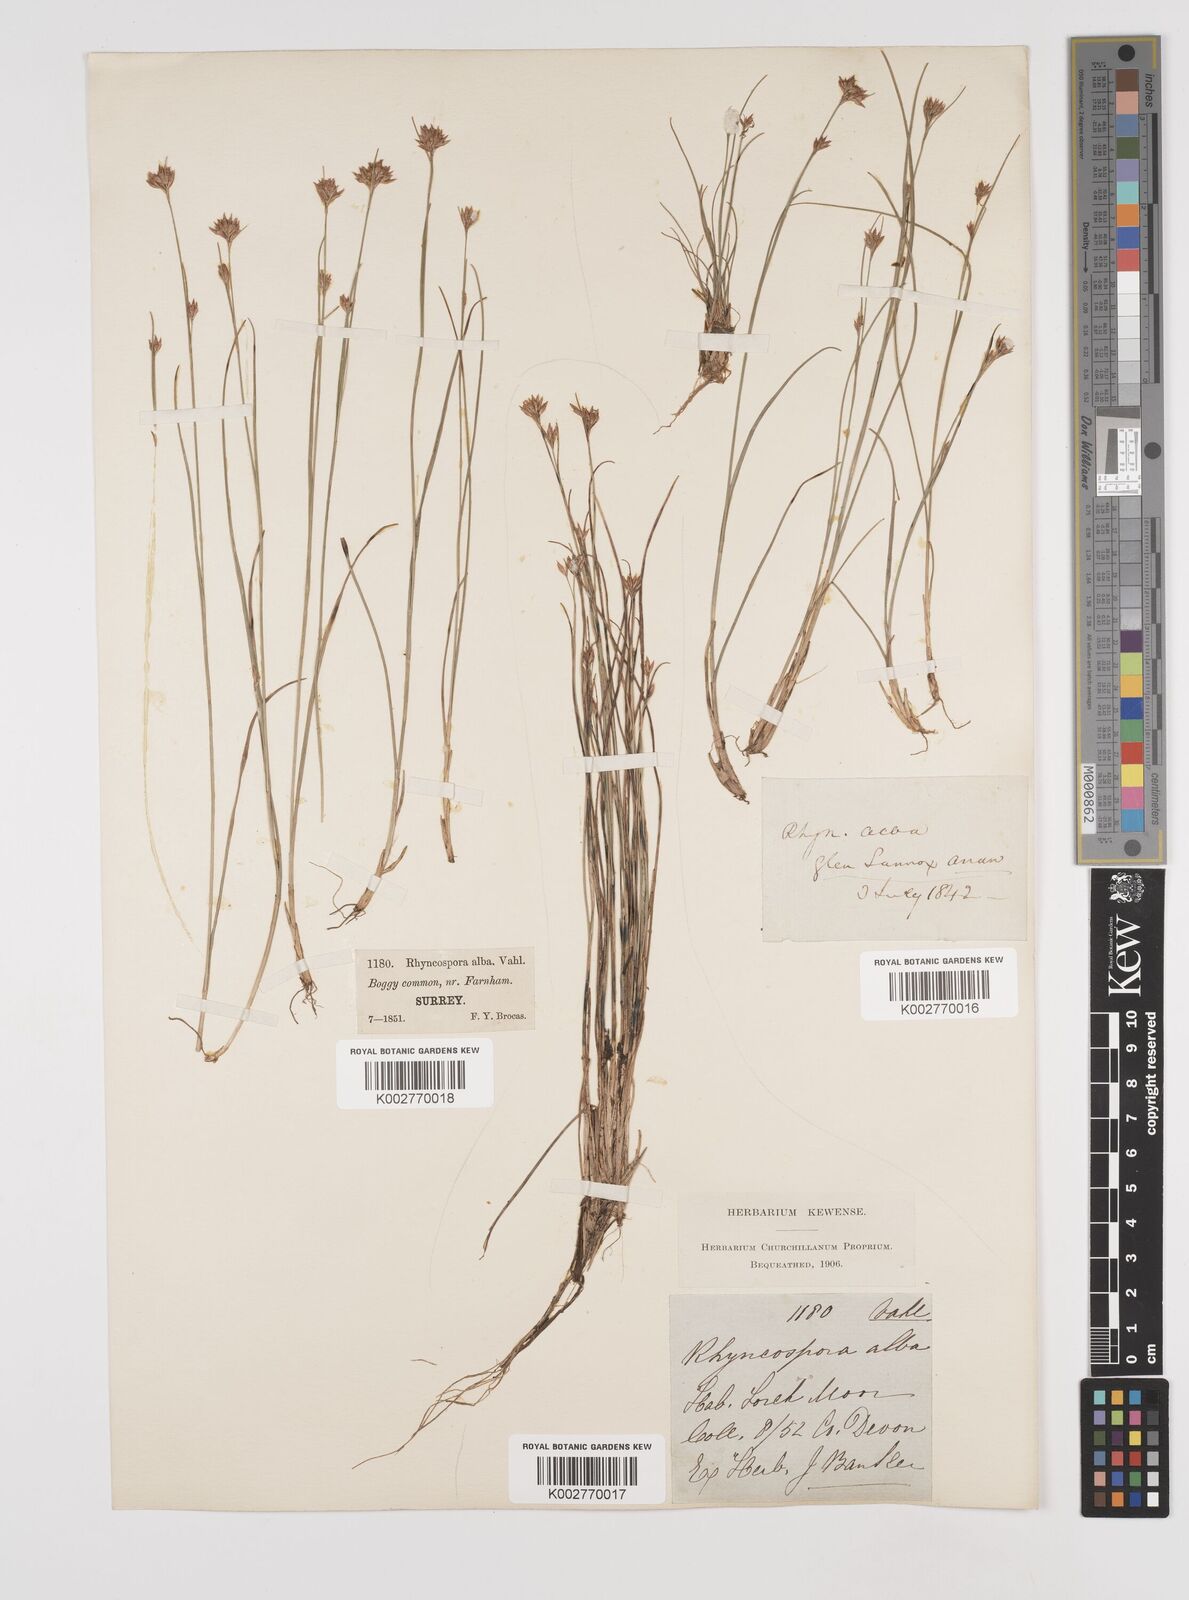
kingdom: Plantae
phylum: Tracheophyta
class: Liliopsida
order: Poales
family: Cyperaceae
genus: Rhynchospora
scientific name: Rhynchospora alba
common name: White beak-sedge
